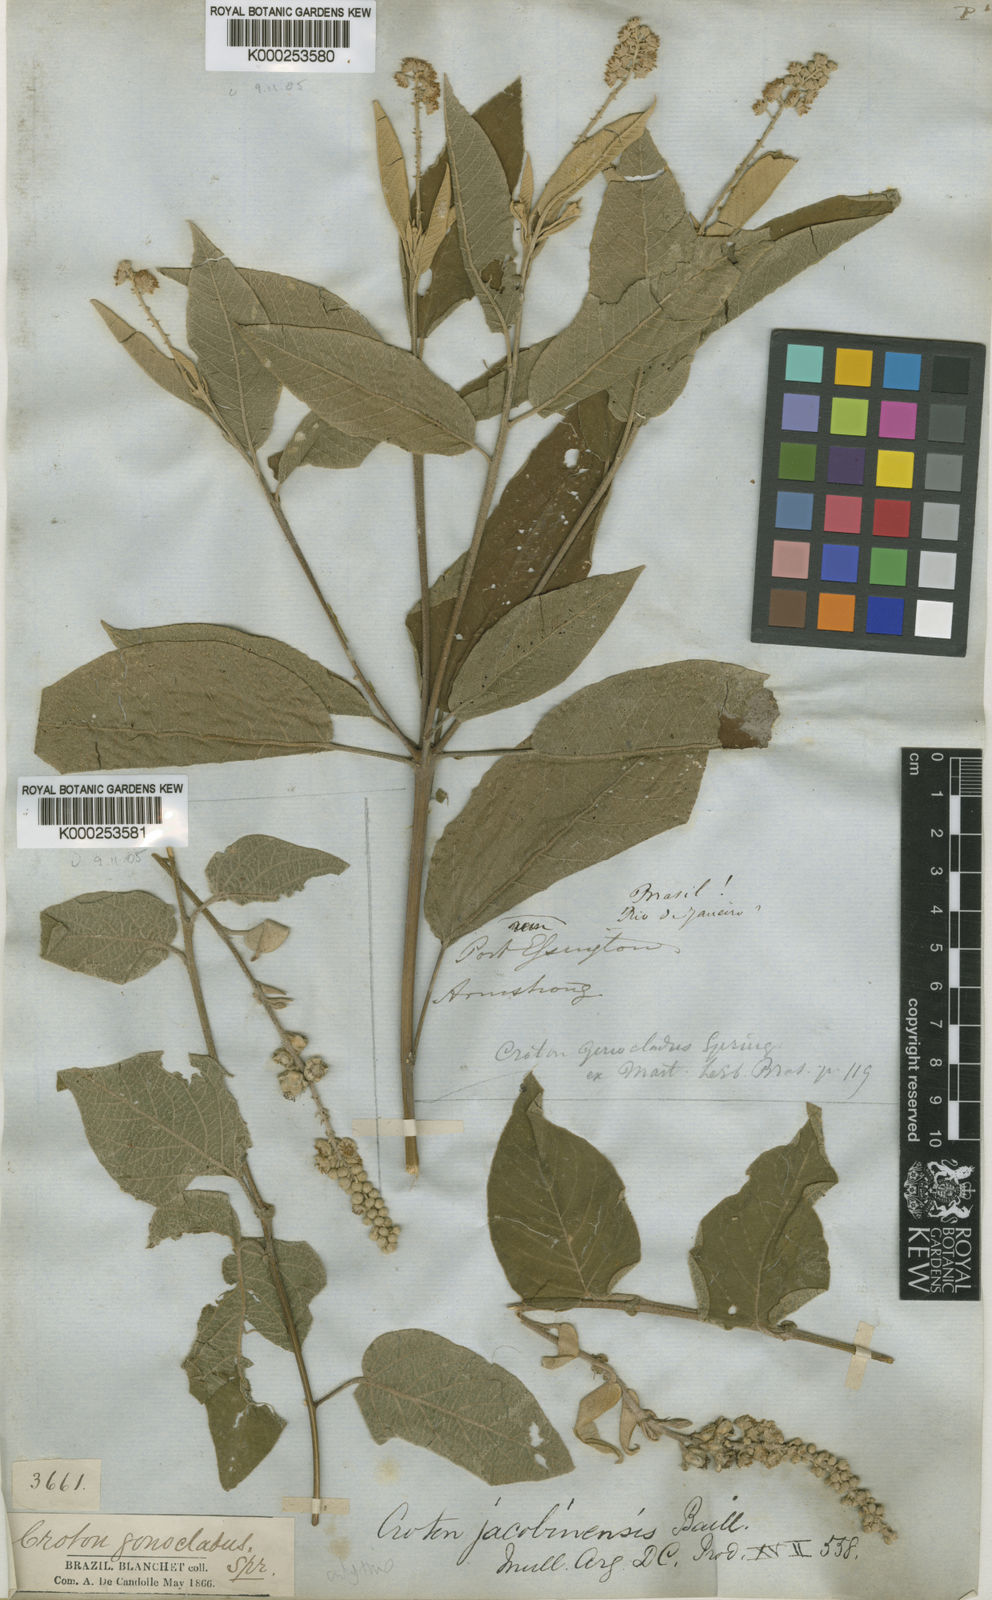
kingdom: Plantae
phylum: Tracheophyta
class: Magnoliopsida
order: Malpighiales
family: Euphorbiaceae
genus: Croton
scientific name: Croton jacobinensis
